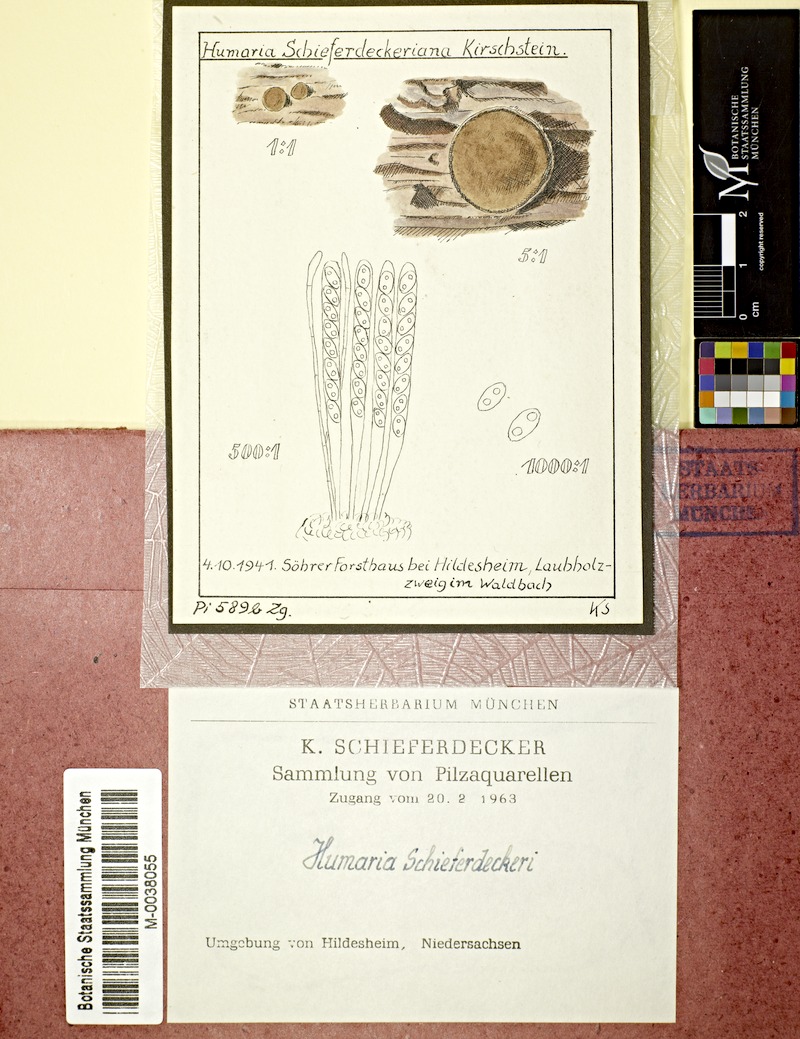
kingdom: Fungi
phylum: Ascomycota
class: Pezizomycetes
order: Pezizales
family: Pyronemataceae
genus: Humaria
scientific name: Humaria
